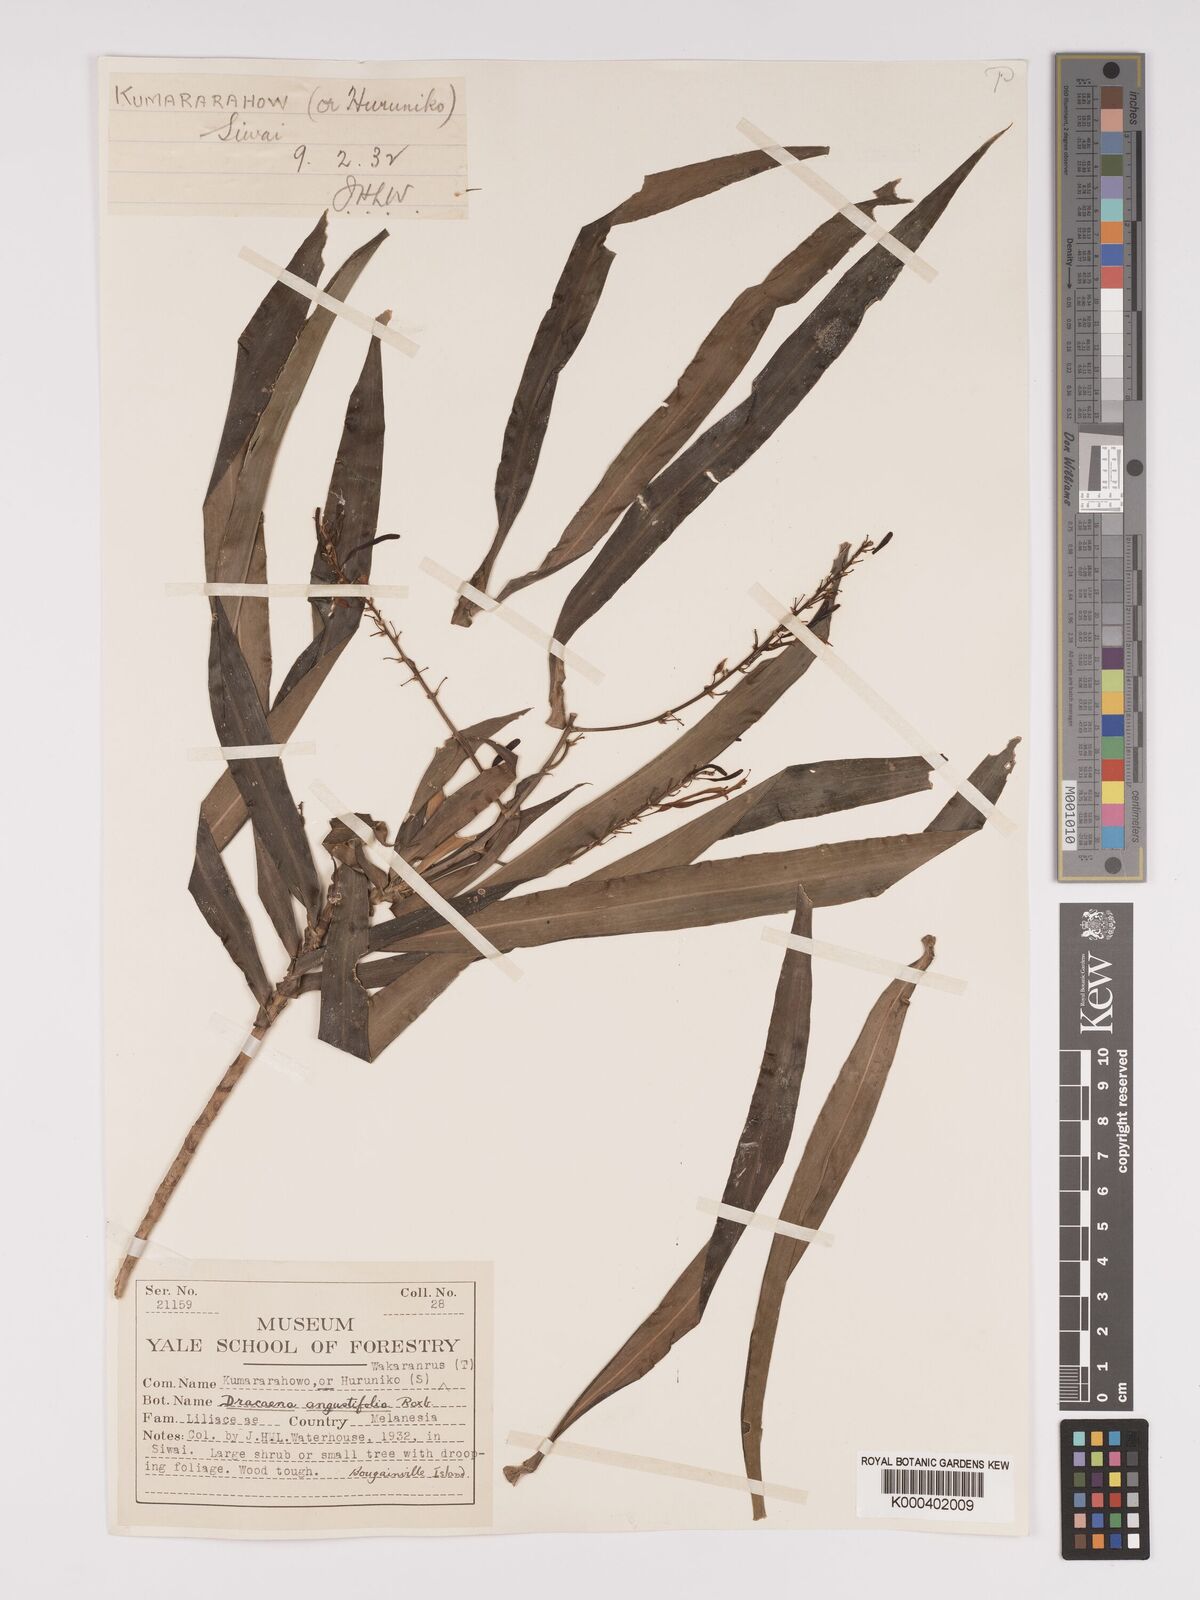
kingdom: Plantae
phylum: Tracheophyta
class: Liliopsida
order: Asparagales
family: Asparagaceae
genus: Dracaena
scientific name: Dracaena angustifolia
